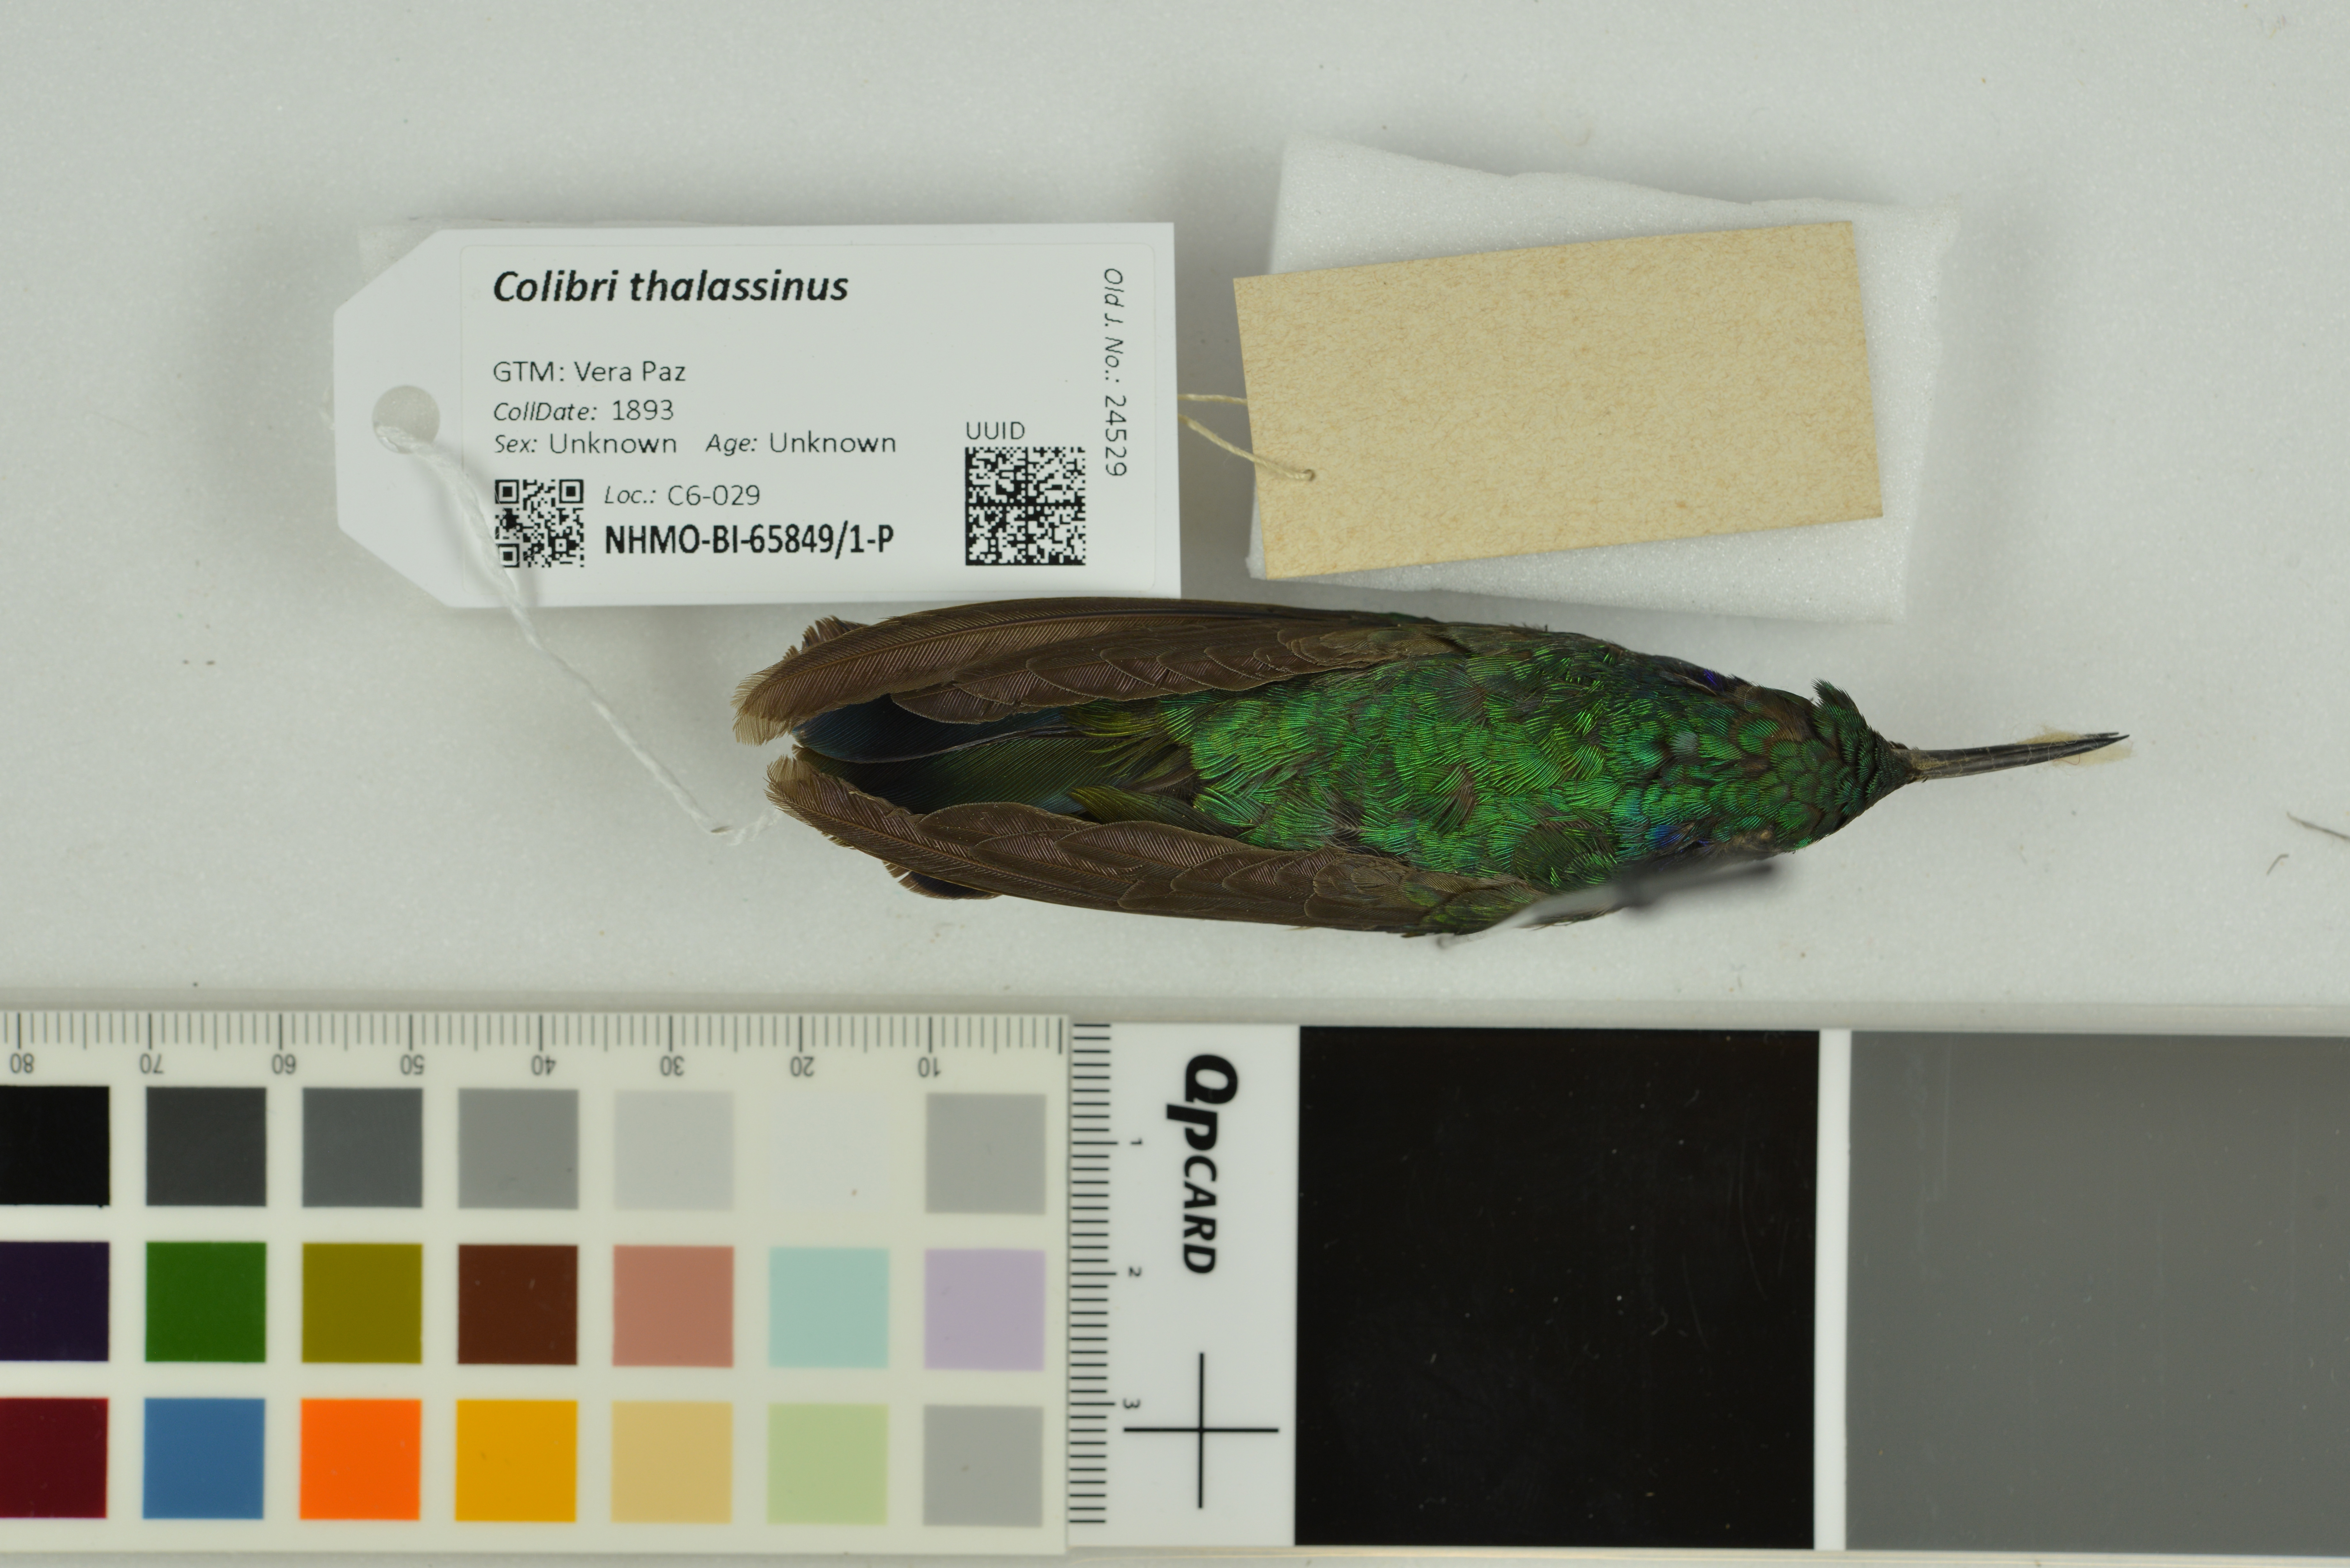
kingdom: Animalia
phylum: Chordata
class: Aves
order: Apodiformes
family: Trochilidae
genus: Colibri
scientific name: Colibri thalassinus
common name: Green violetear
